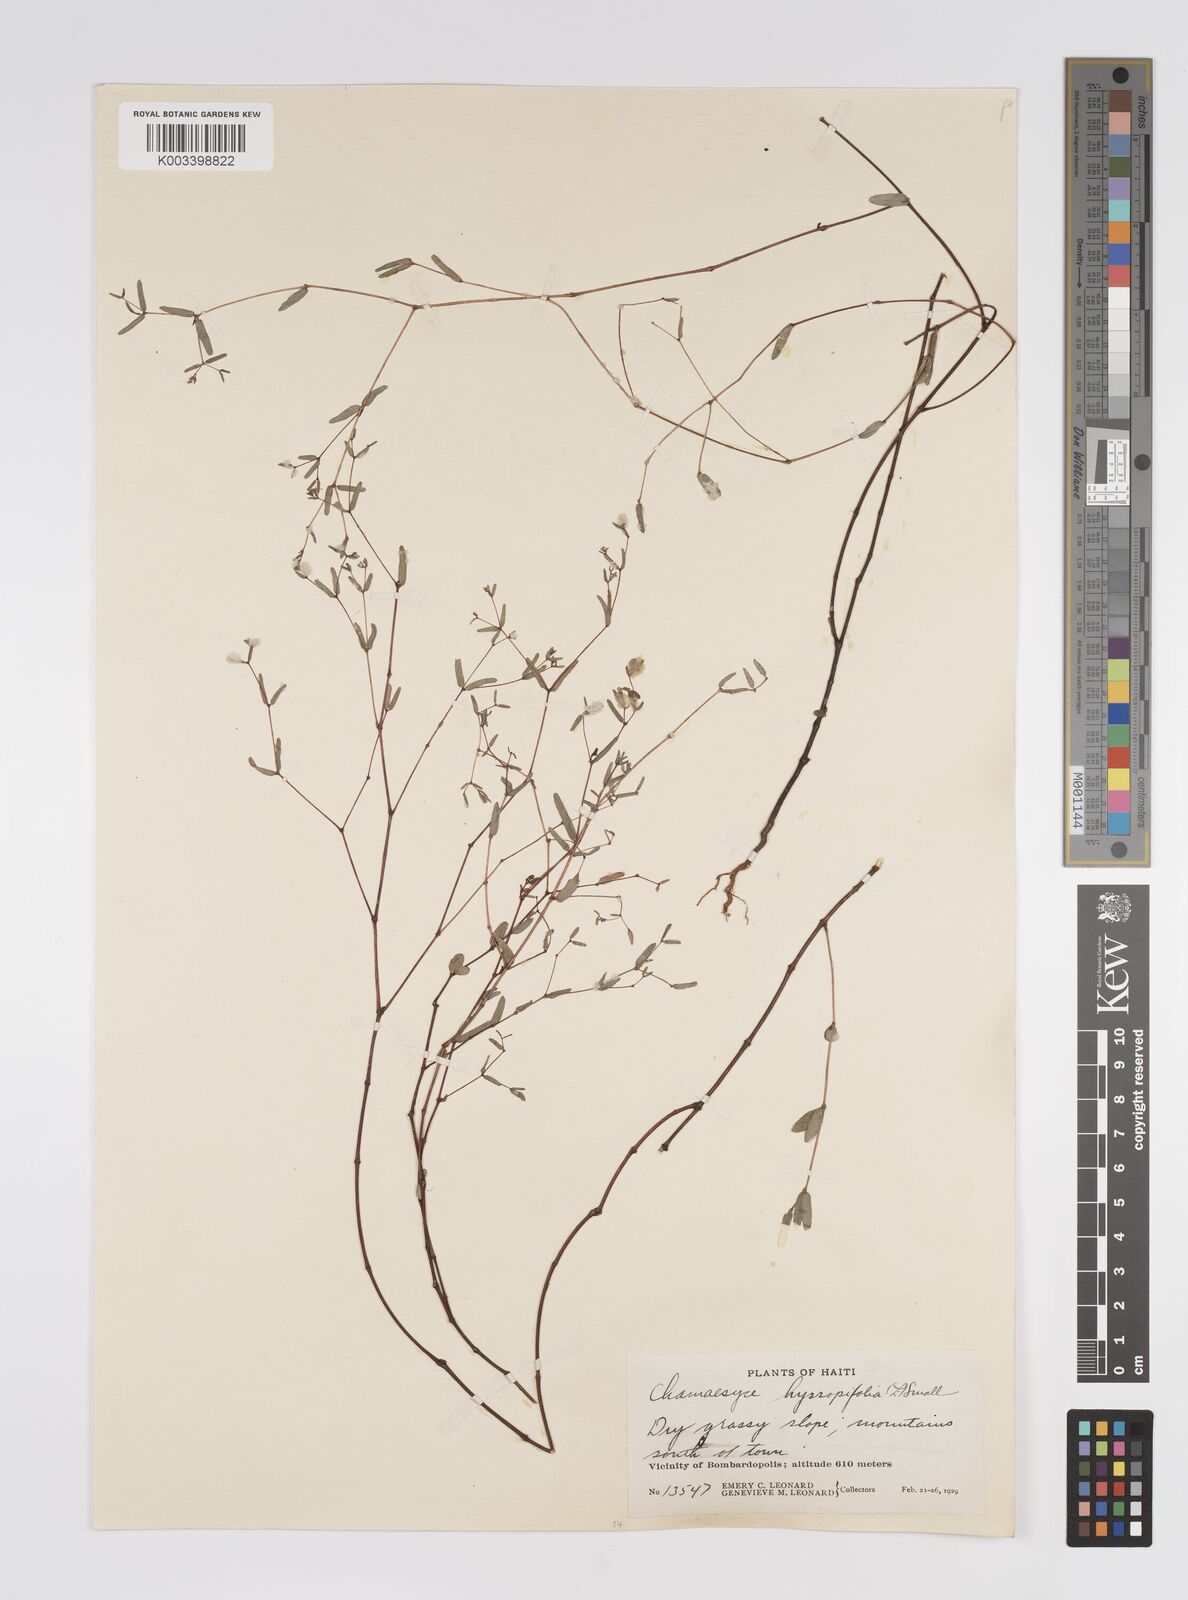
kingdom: Plantae
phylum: Tracheophyta
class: Magnoliopsida
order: Malpighiales
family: Euphorbiaceae
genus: Euphorbia
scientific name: Euphorbia hyssopifolia
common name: Hyssopleaf sandmat
